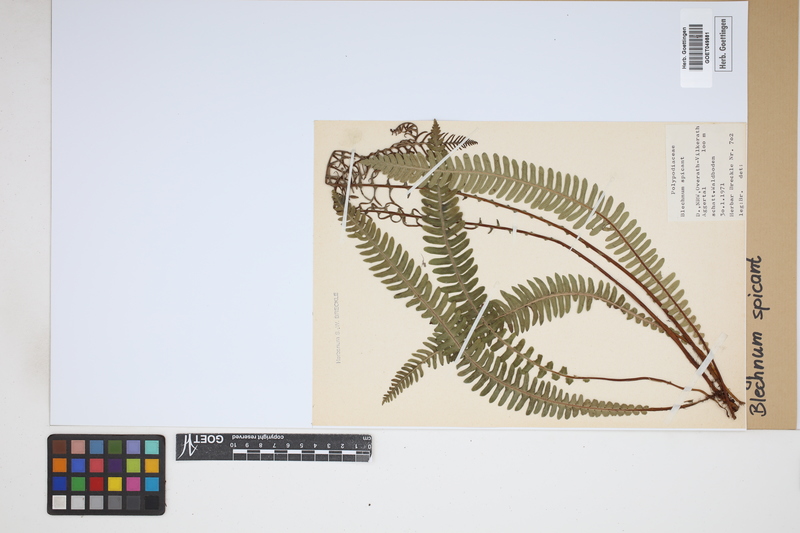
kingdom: Plantae
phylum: Tracheophyta
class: Polypodiopsida
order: Polypodiales
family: Blechnaceae
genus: Struthiopteris
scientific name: Struthiopteris spicant
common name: Deer fern
